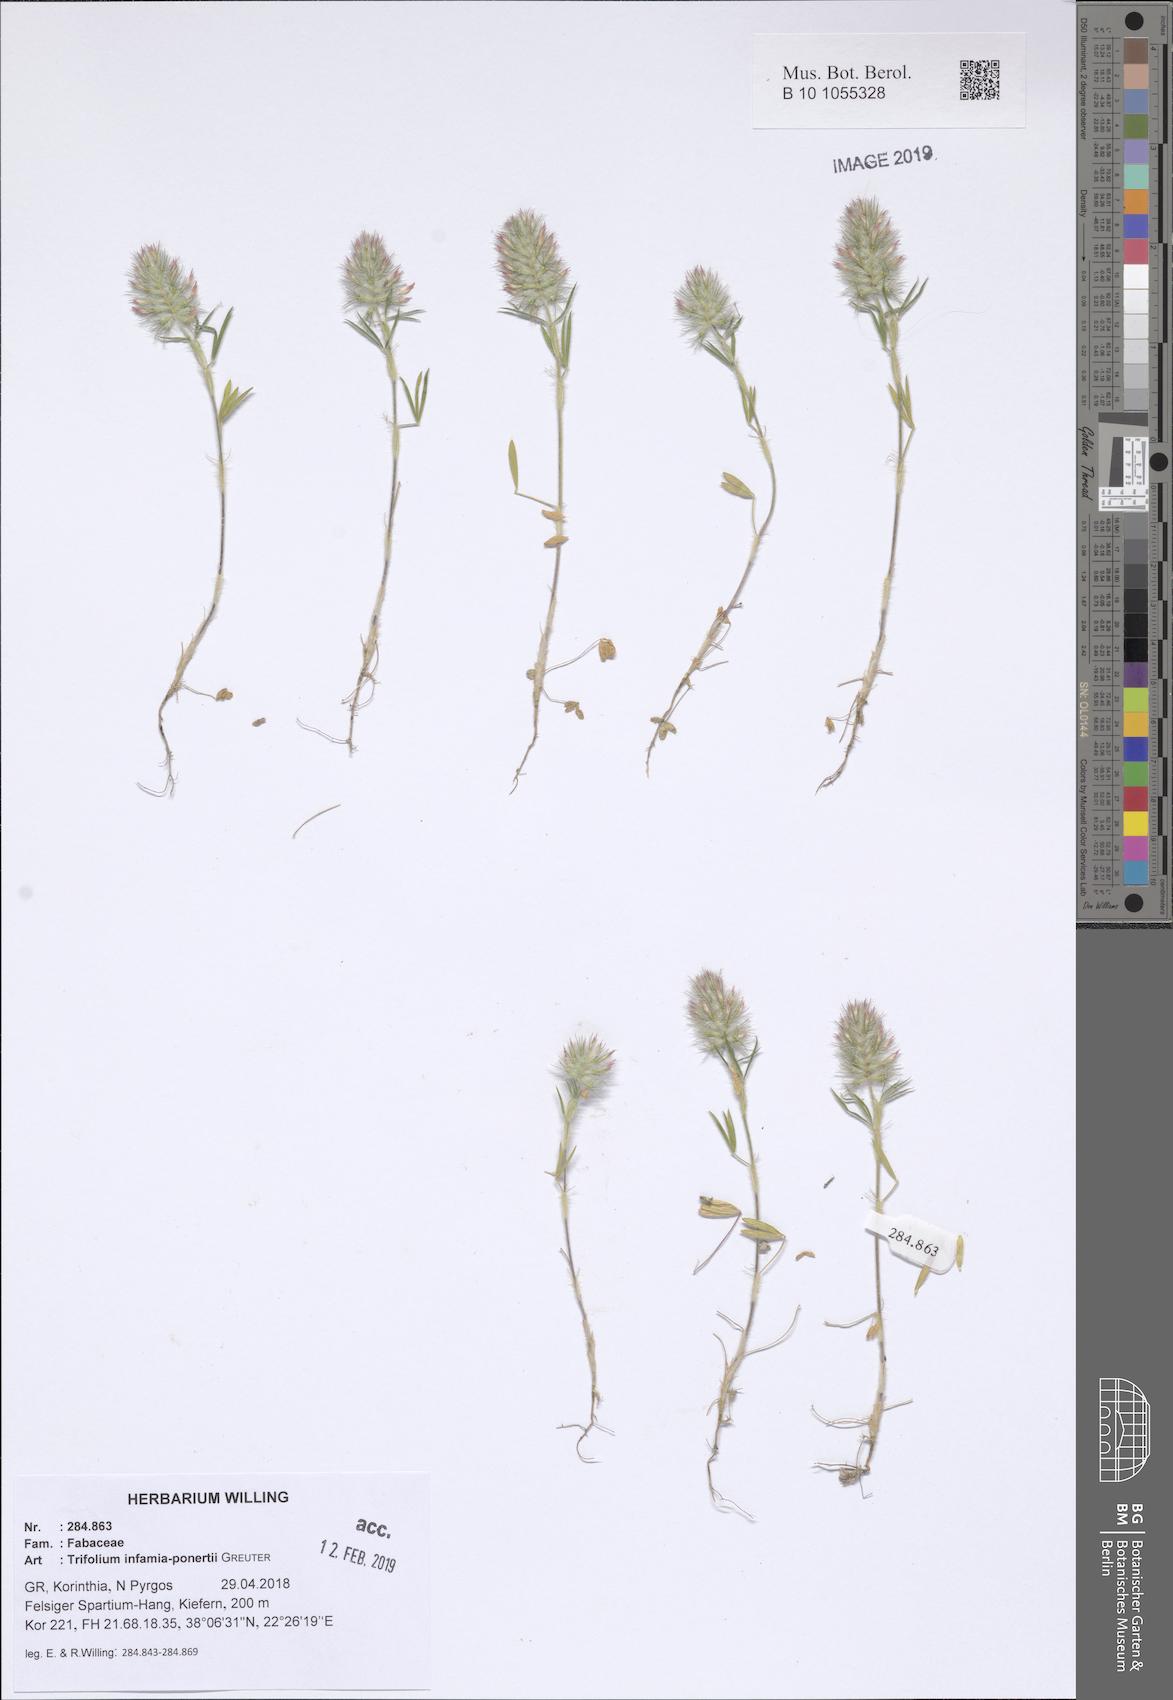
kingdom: Plantae
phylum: Tracheophyta
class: Magnoliopsida
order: Fabales
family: Fabaceae
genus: Trifolium
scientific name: Trifolium infamia-ponertii
